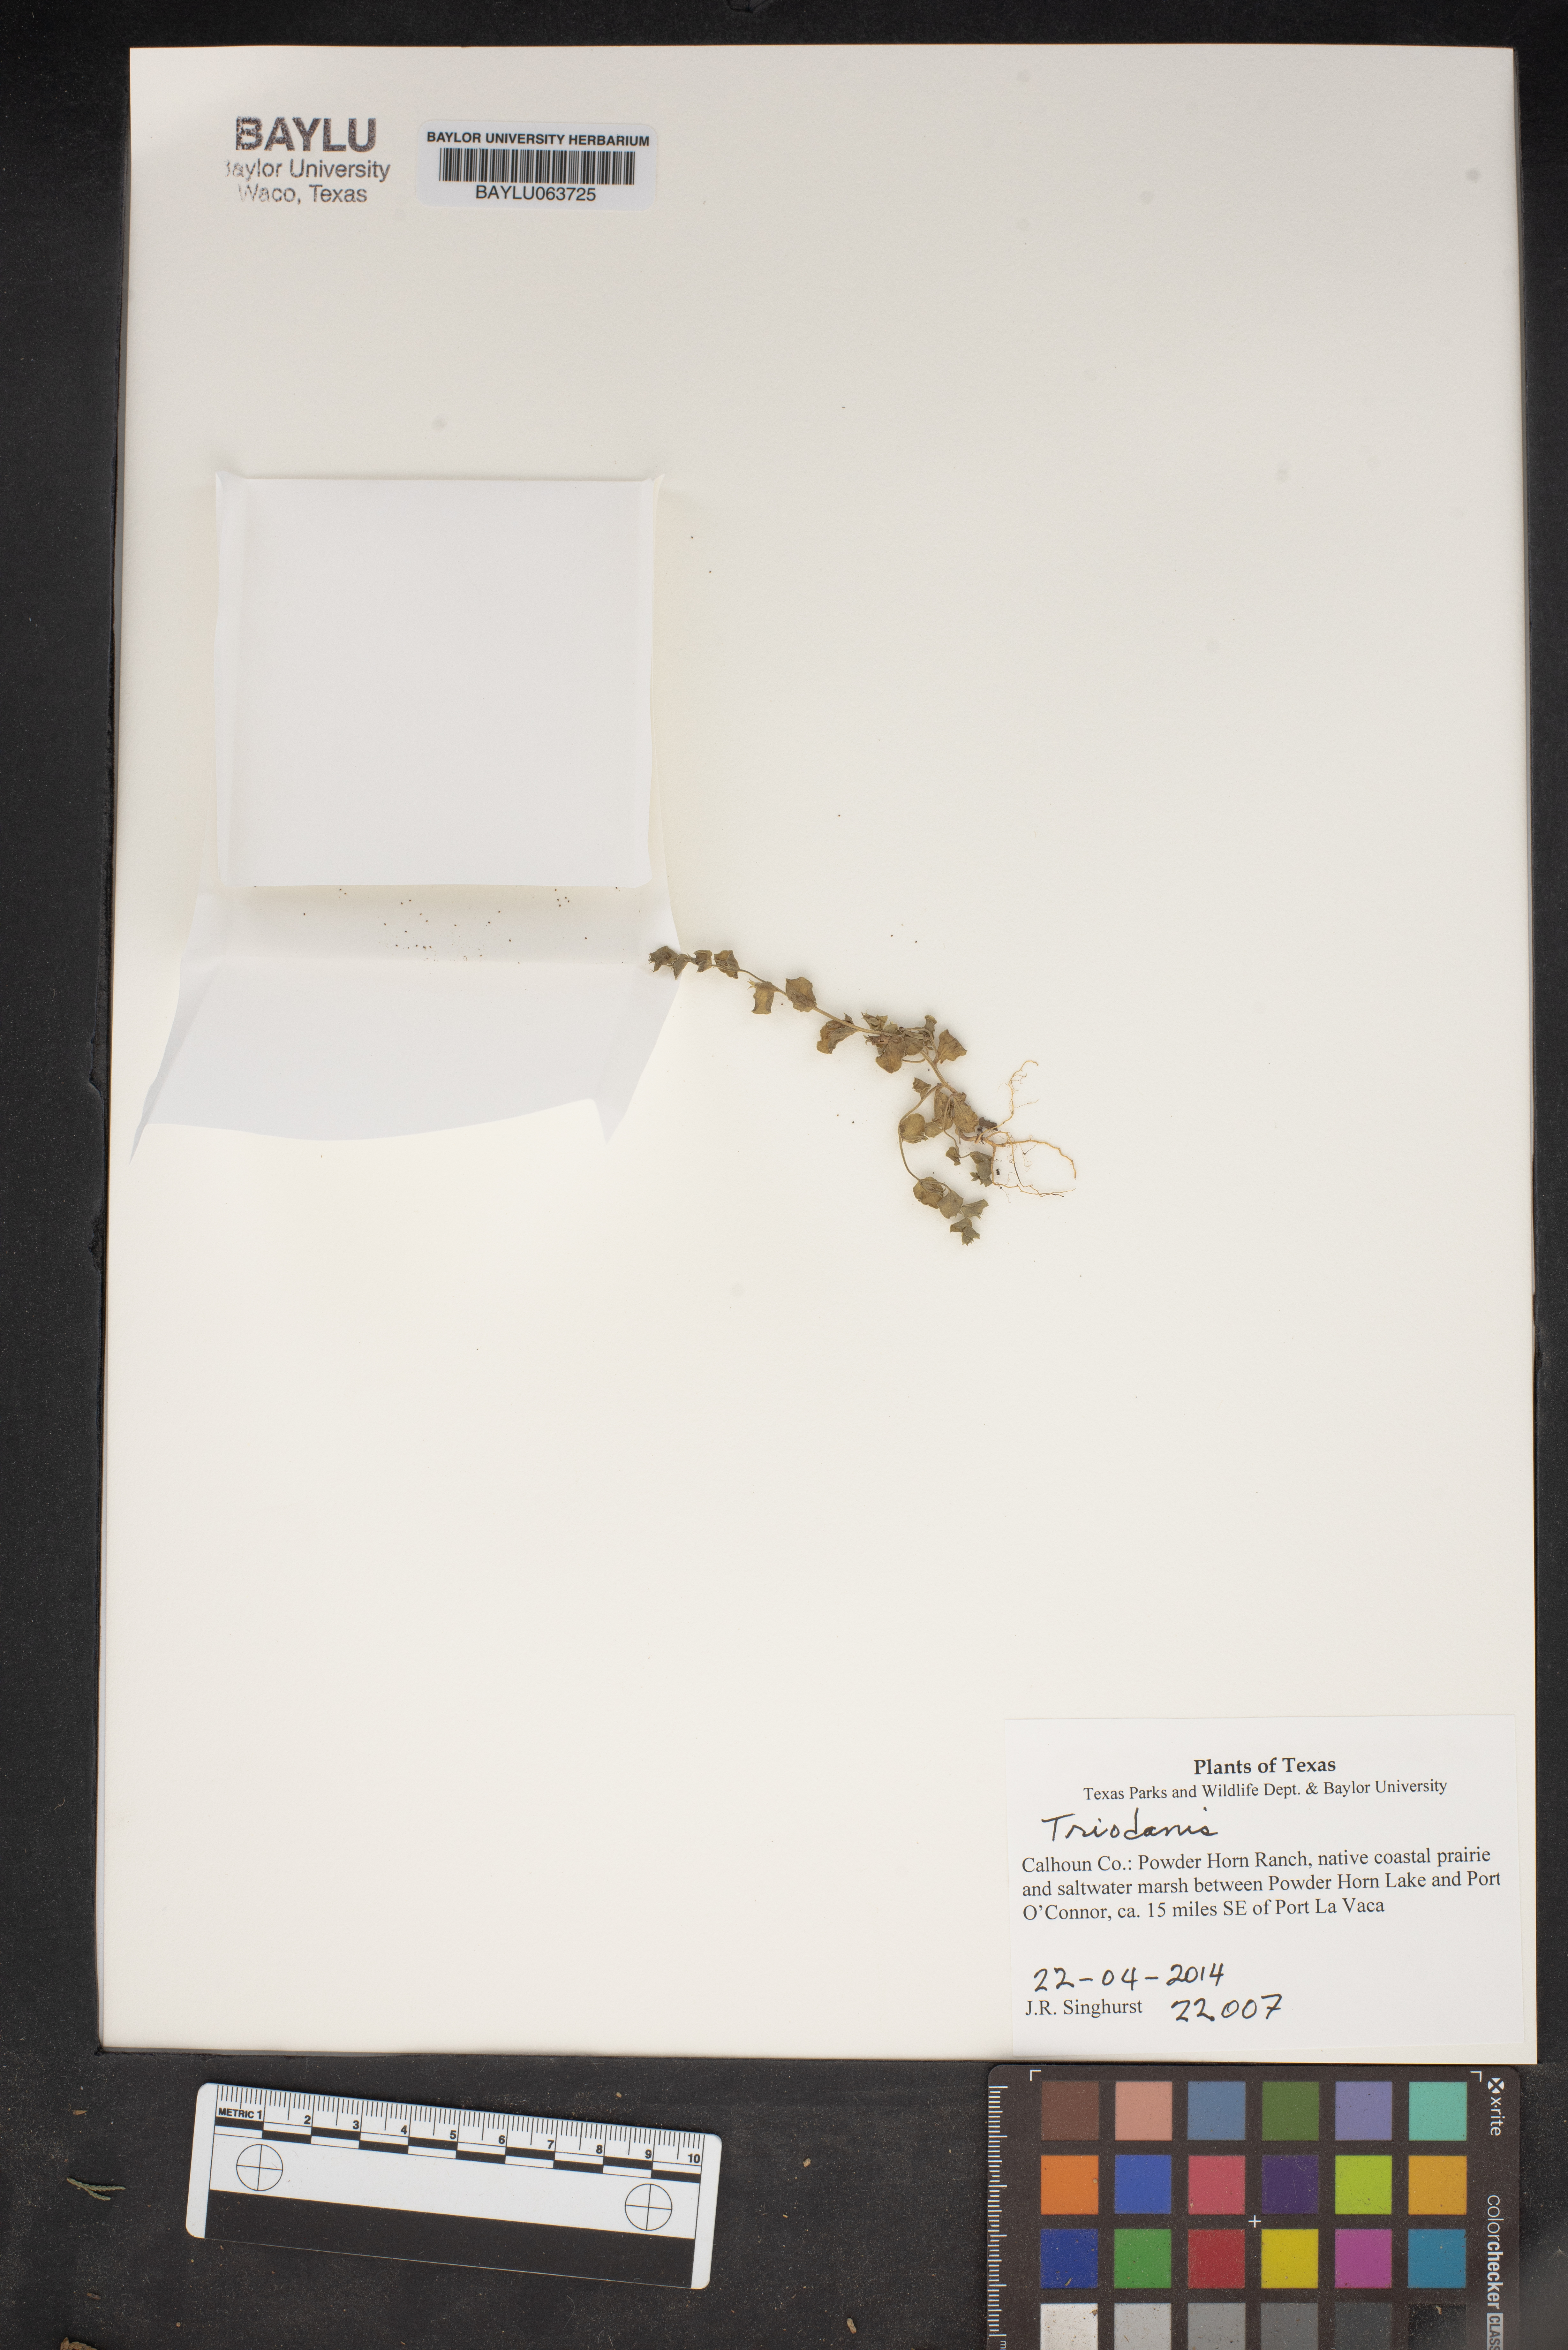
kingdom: Plantae
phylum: Tracheophyta
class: Magnoliopsida
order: Asterales
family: Campanulaceae
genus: Triodanis
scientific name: Triodanis
